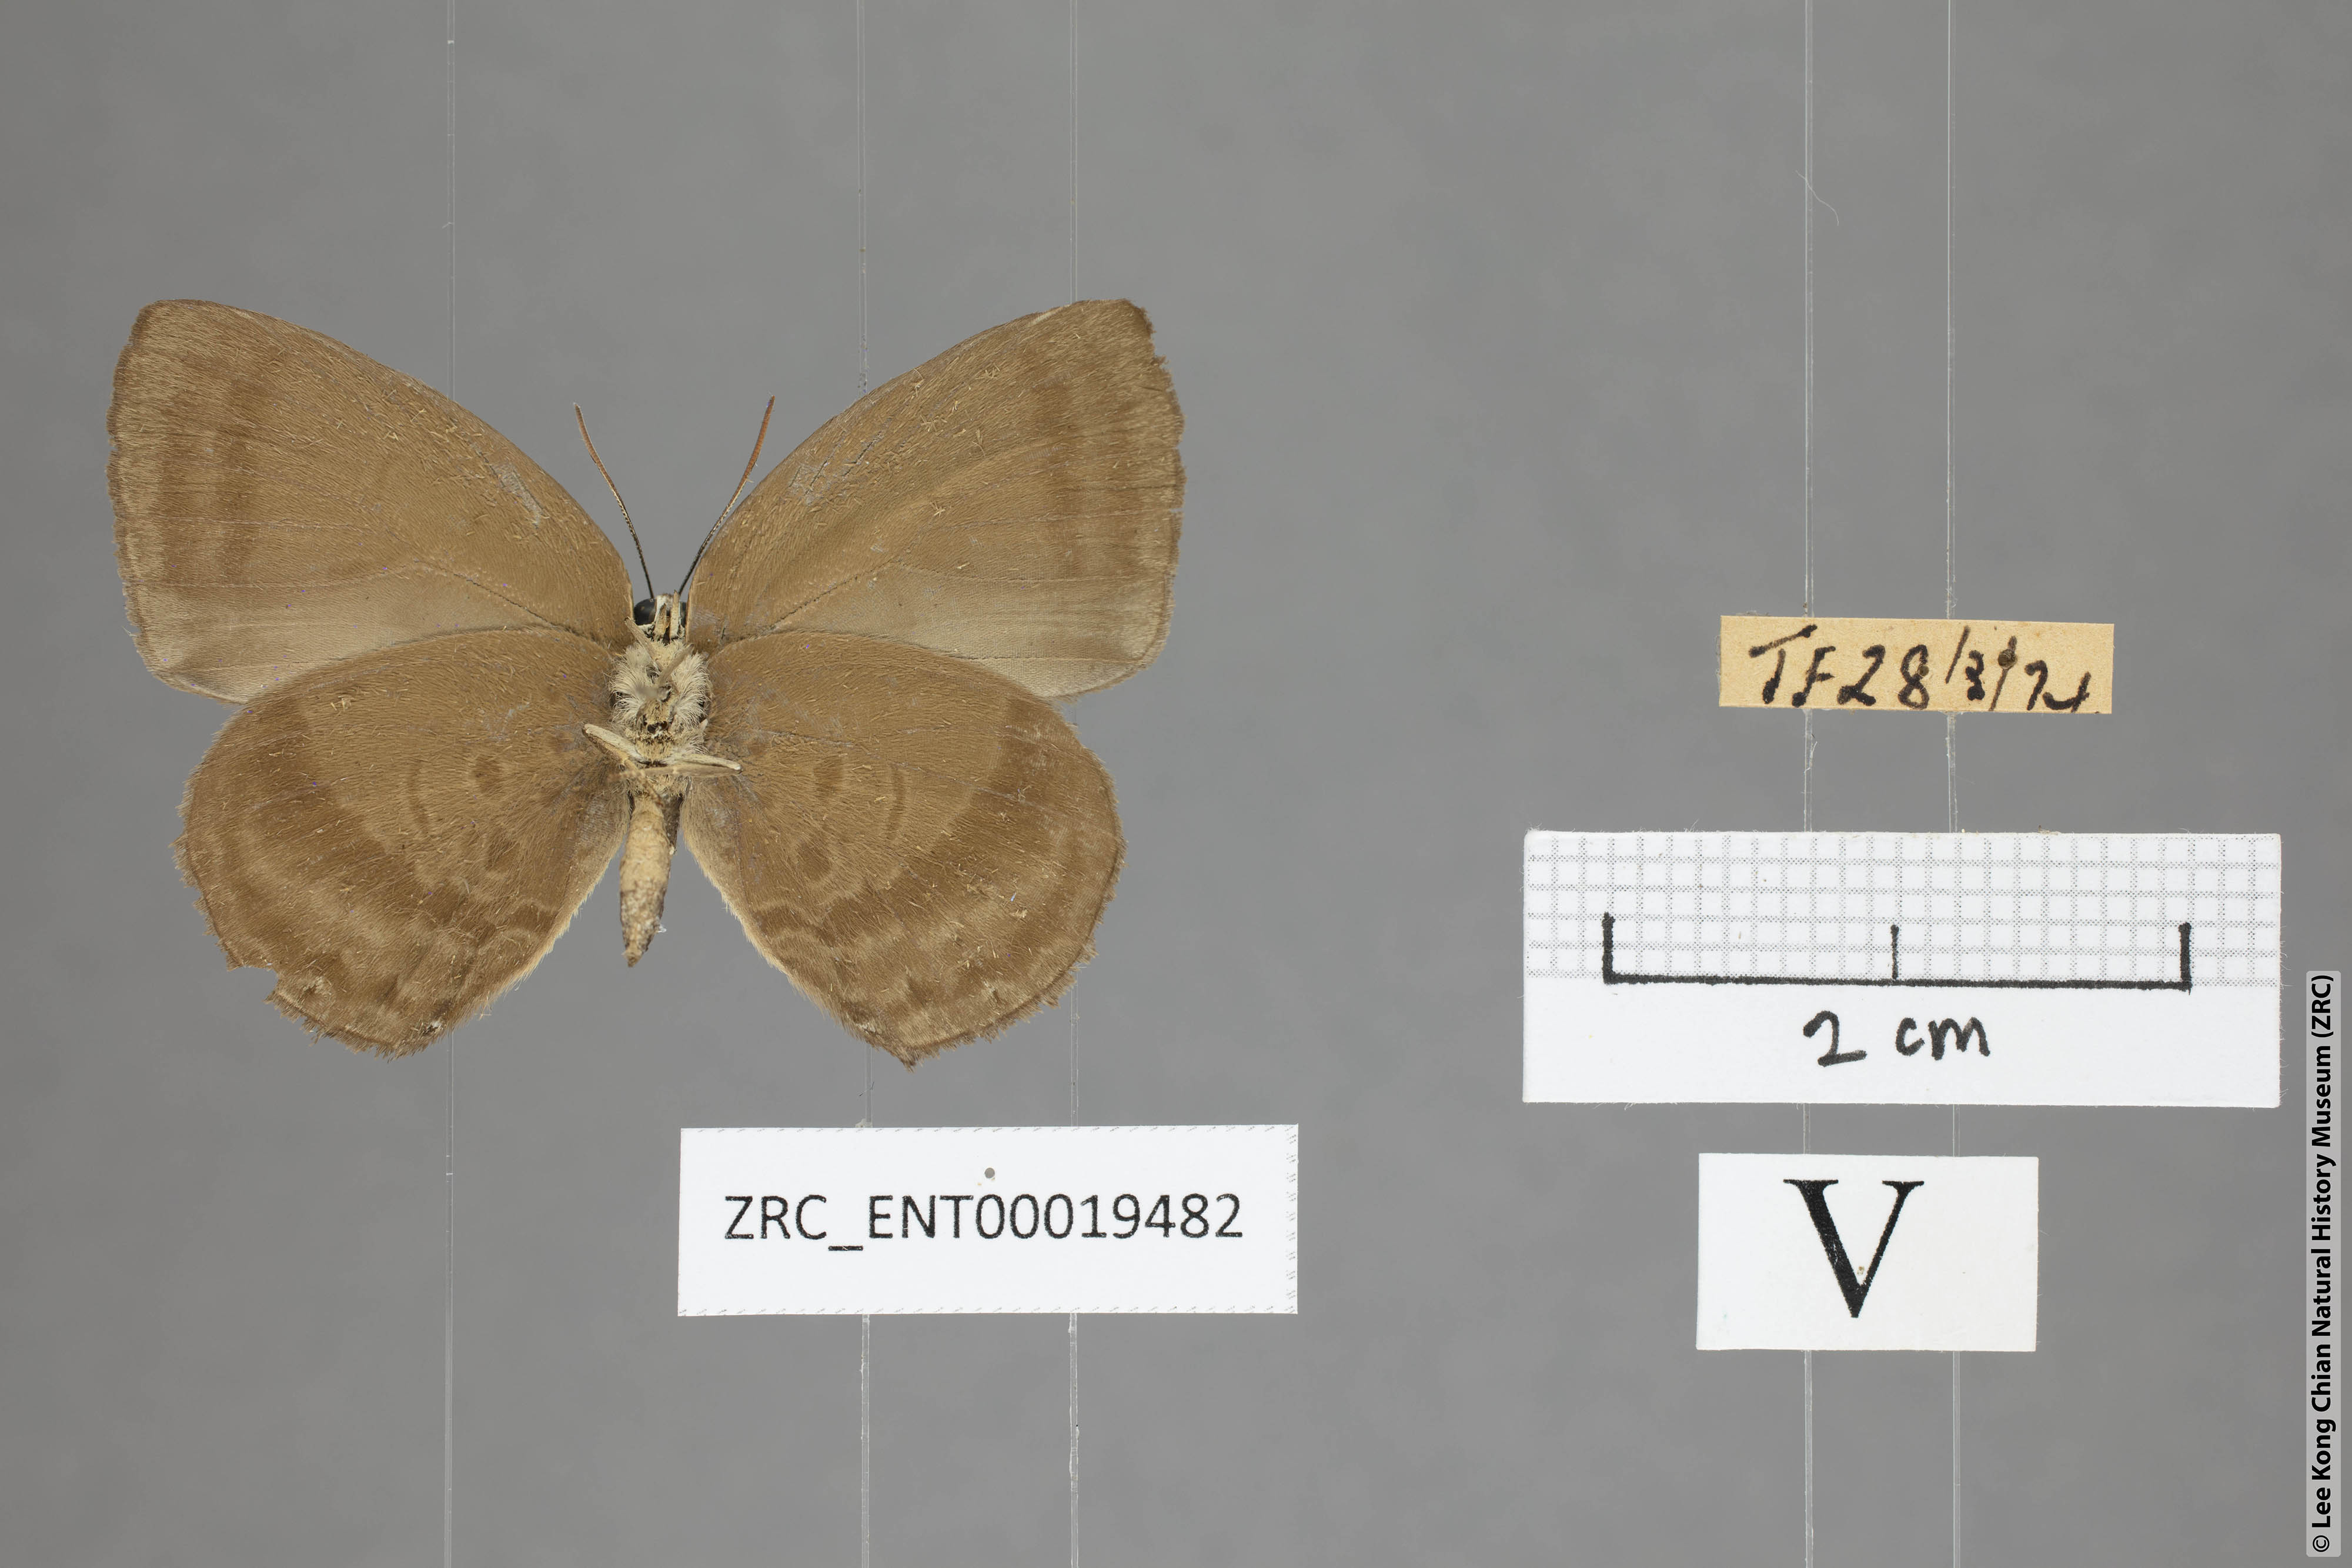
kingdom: Animalia
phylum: Arthropoda
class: Insecta
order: Lepidoptera
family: Lycaenidae
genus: Arhopala
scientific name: Arhopala fulla
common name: Spotless oakblue
